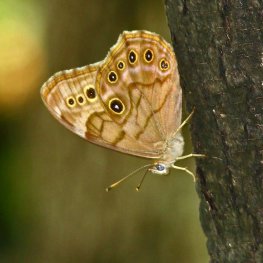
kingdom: Animalia
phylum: Arthropoda
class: Insecta
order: Lepidoptera
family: Nymphalidae
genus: Lethe
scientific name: Lethe anthedon
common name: Northern Pearly-Eye
